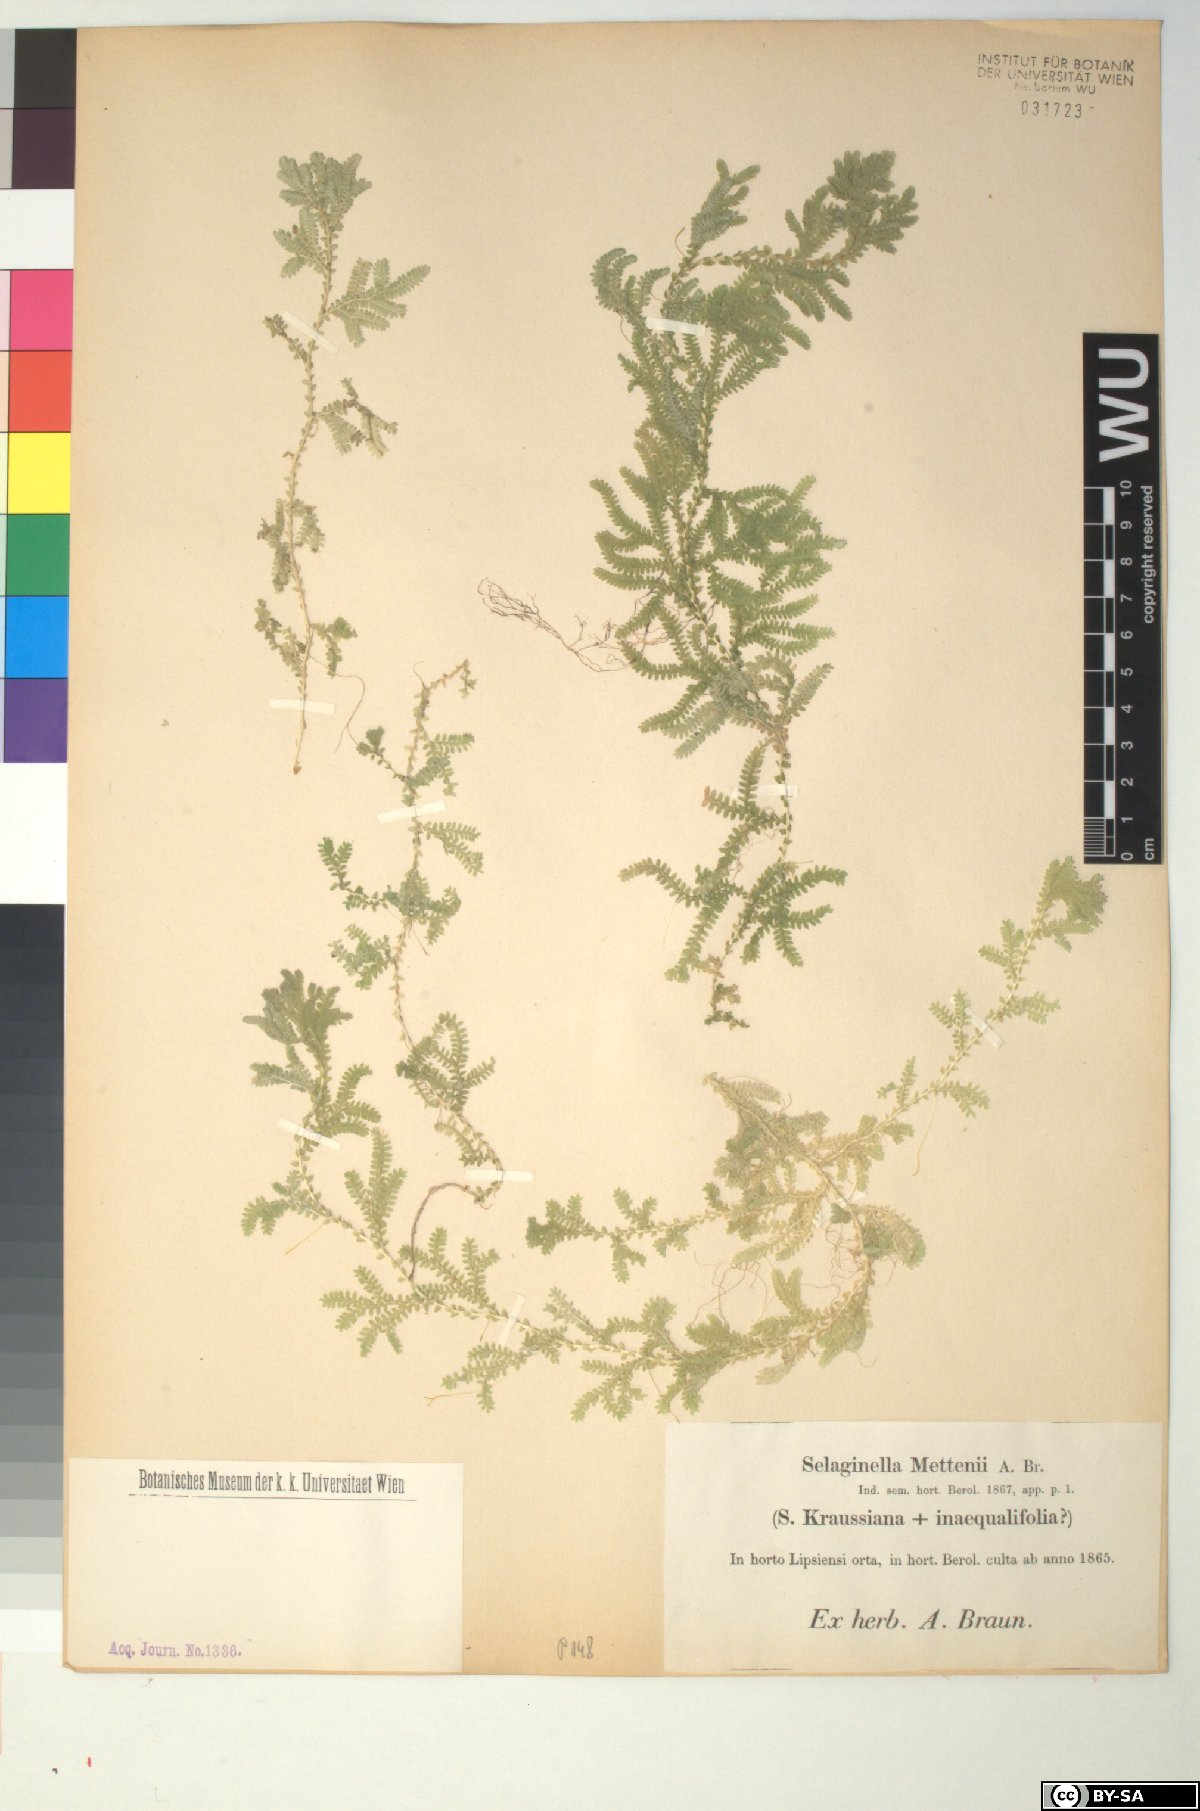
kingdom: Plantae
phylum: Tracheophyta
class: Lycopodiopsida
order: Selaginellales
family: Selaginellaceae
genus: Selaginella
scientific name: Selaginella semicordata
